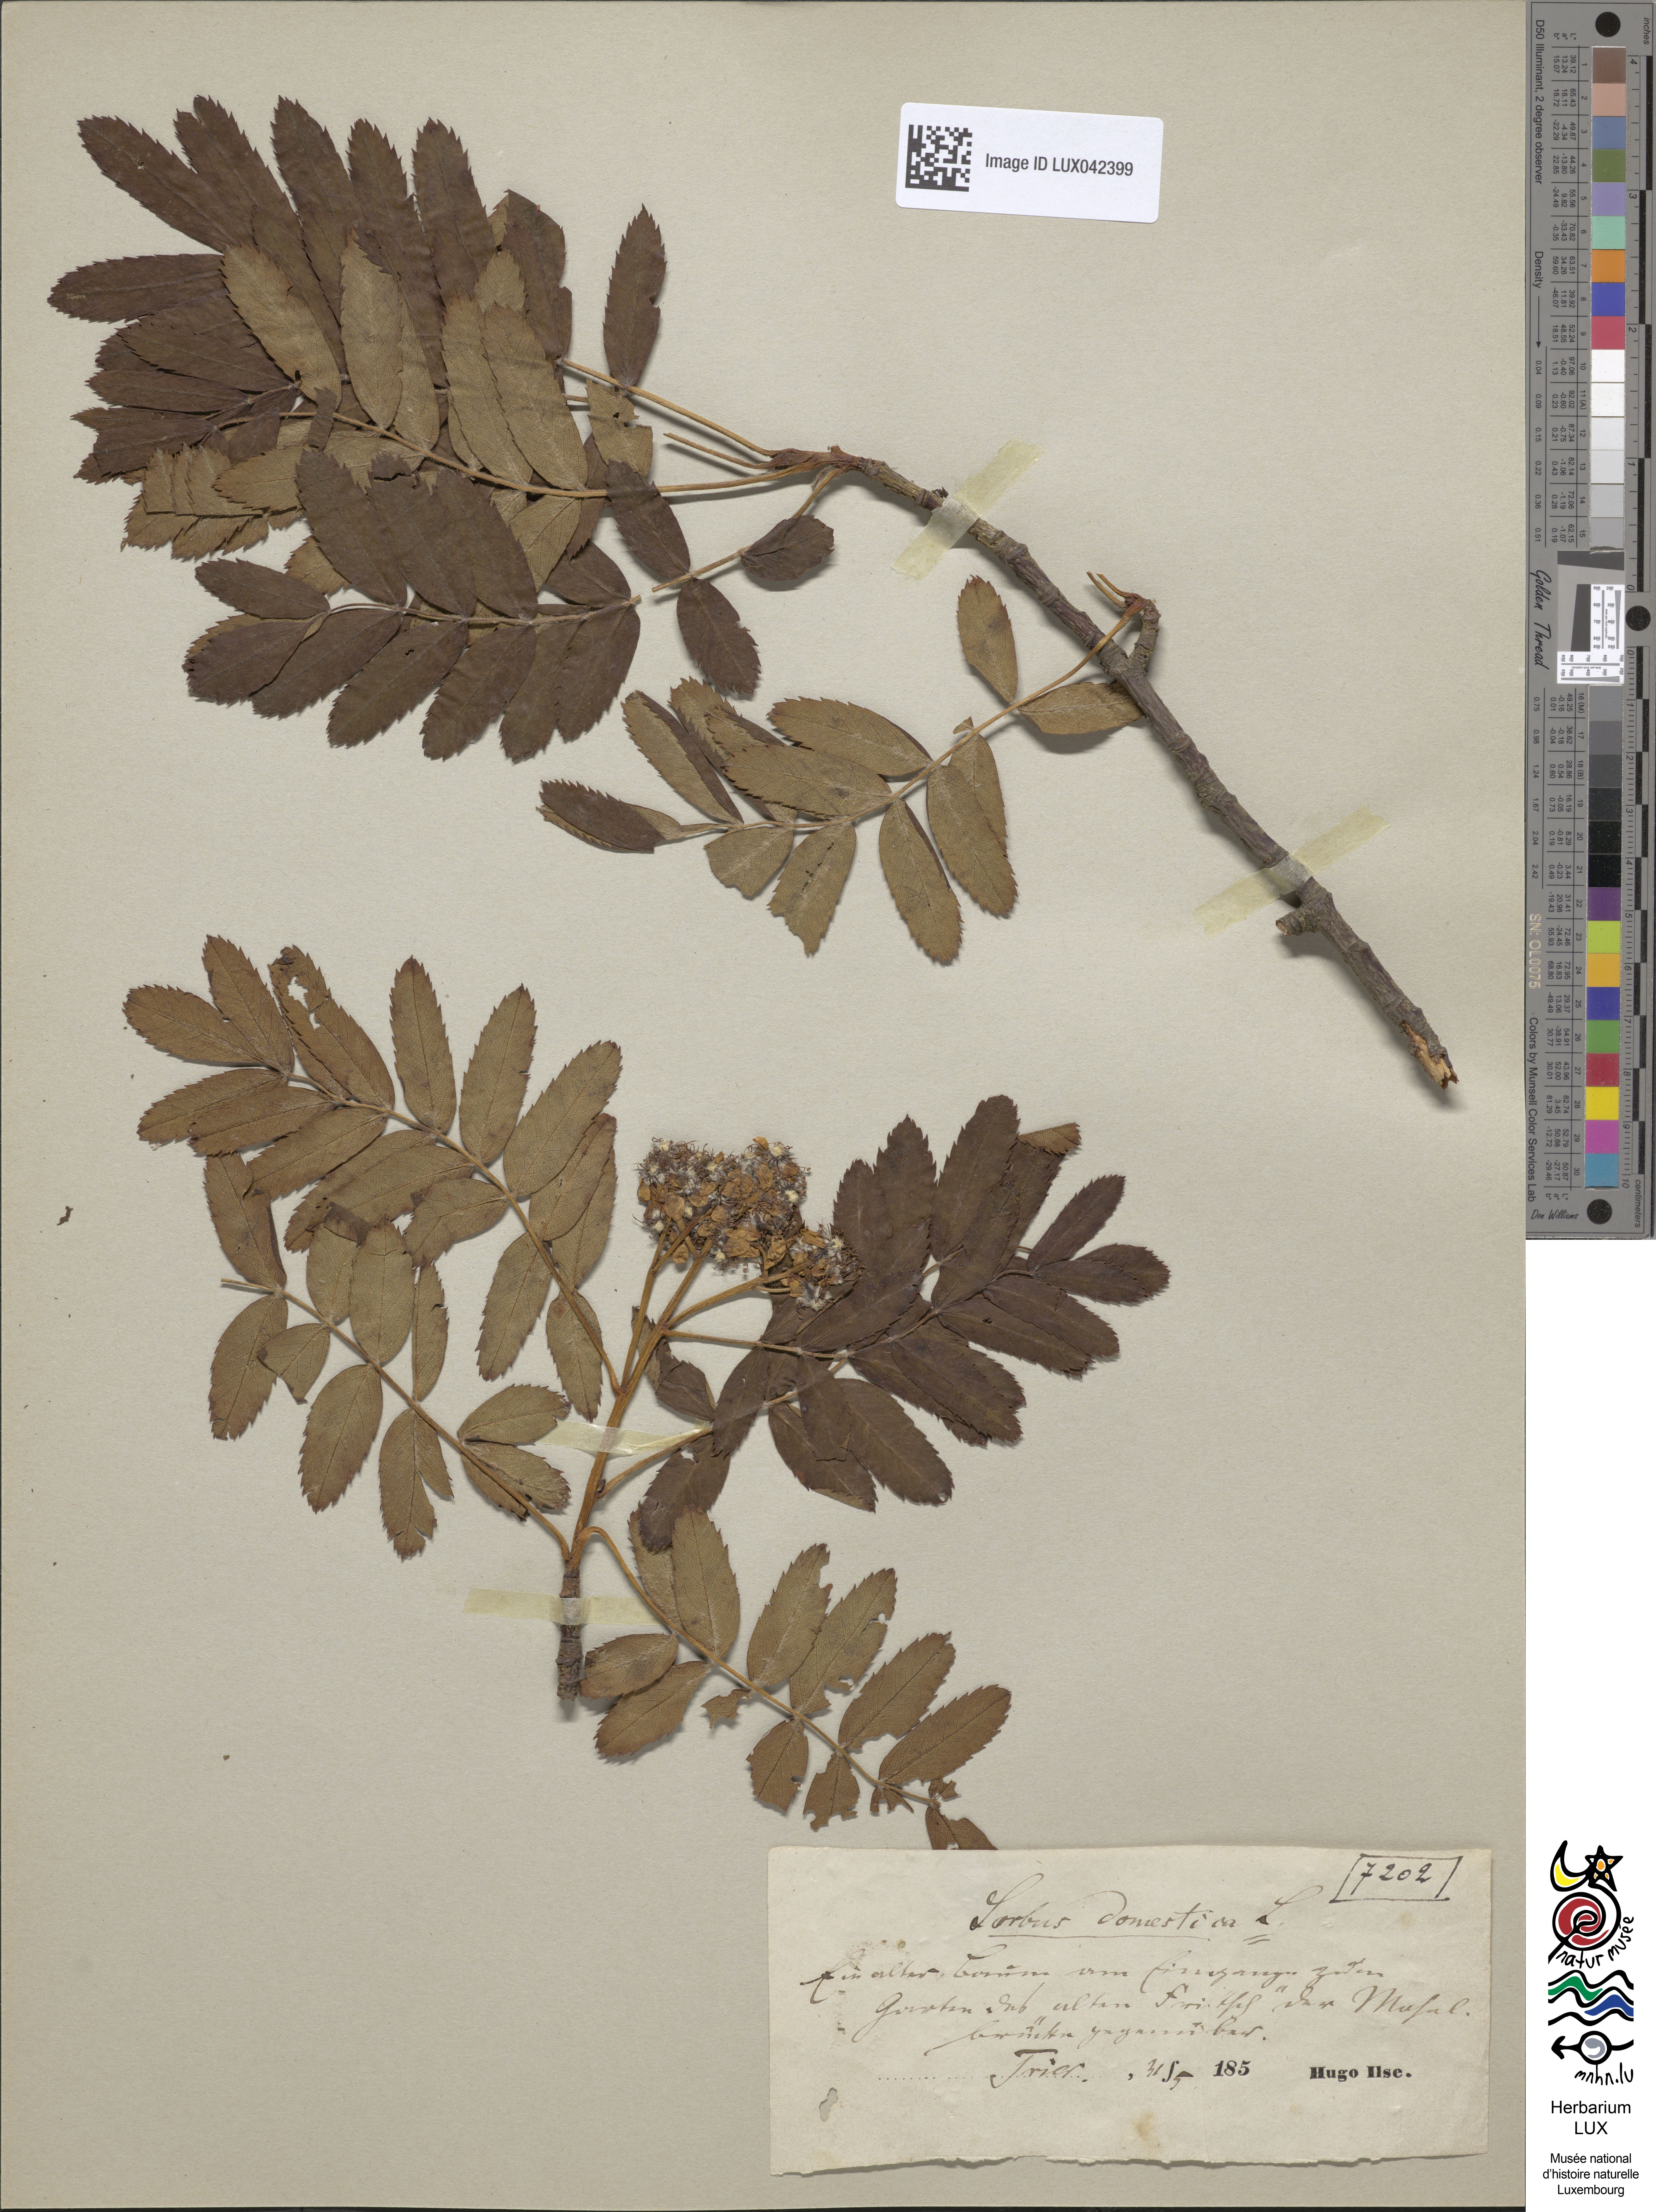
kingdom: Plantae
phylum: Tracheophyta
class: Magnoliopsida
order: Rosales
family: Rosaceae
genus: Cormus
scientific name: Cormus domestica
